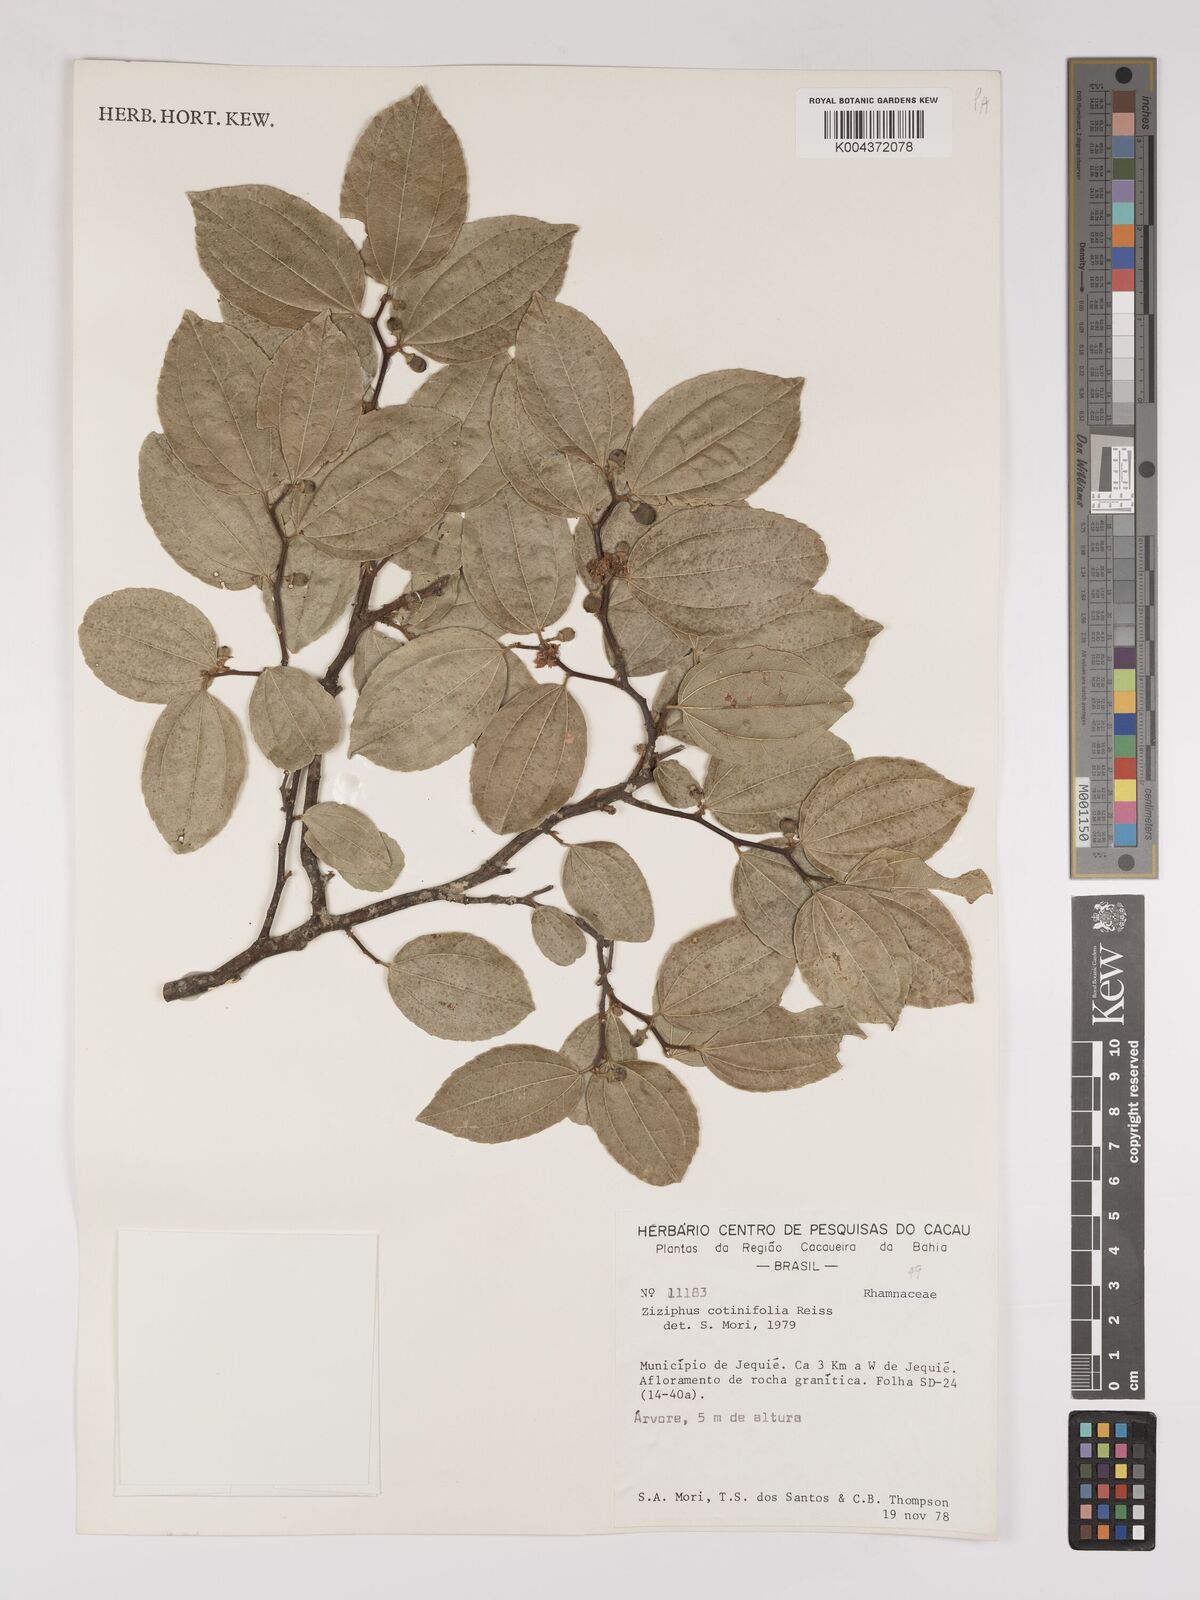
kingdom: Plantae
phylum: Tracheophyta
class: Magnoliopsida
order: Rosales
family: Rhamnaceae
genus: Sarcomphalus
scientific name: Sarcomphalus cotinifolius
